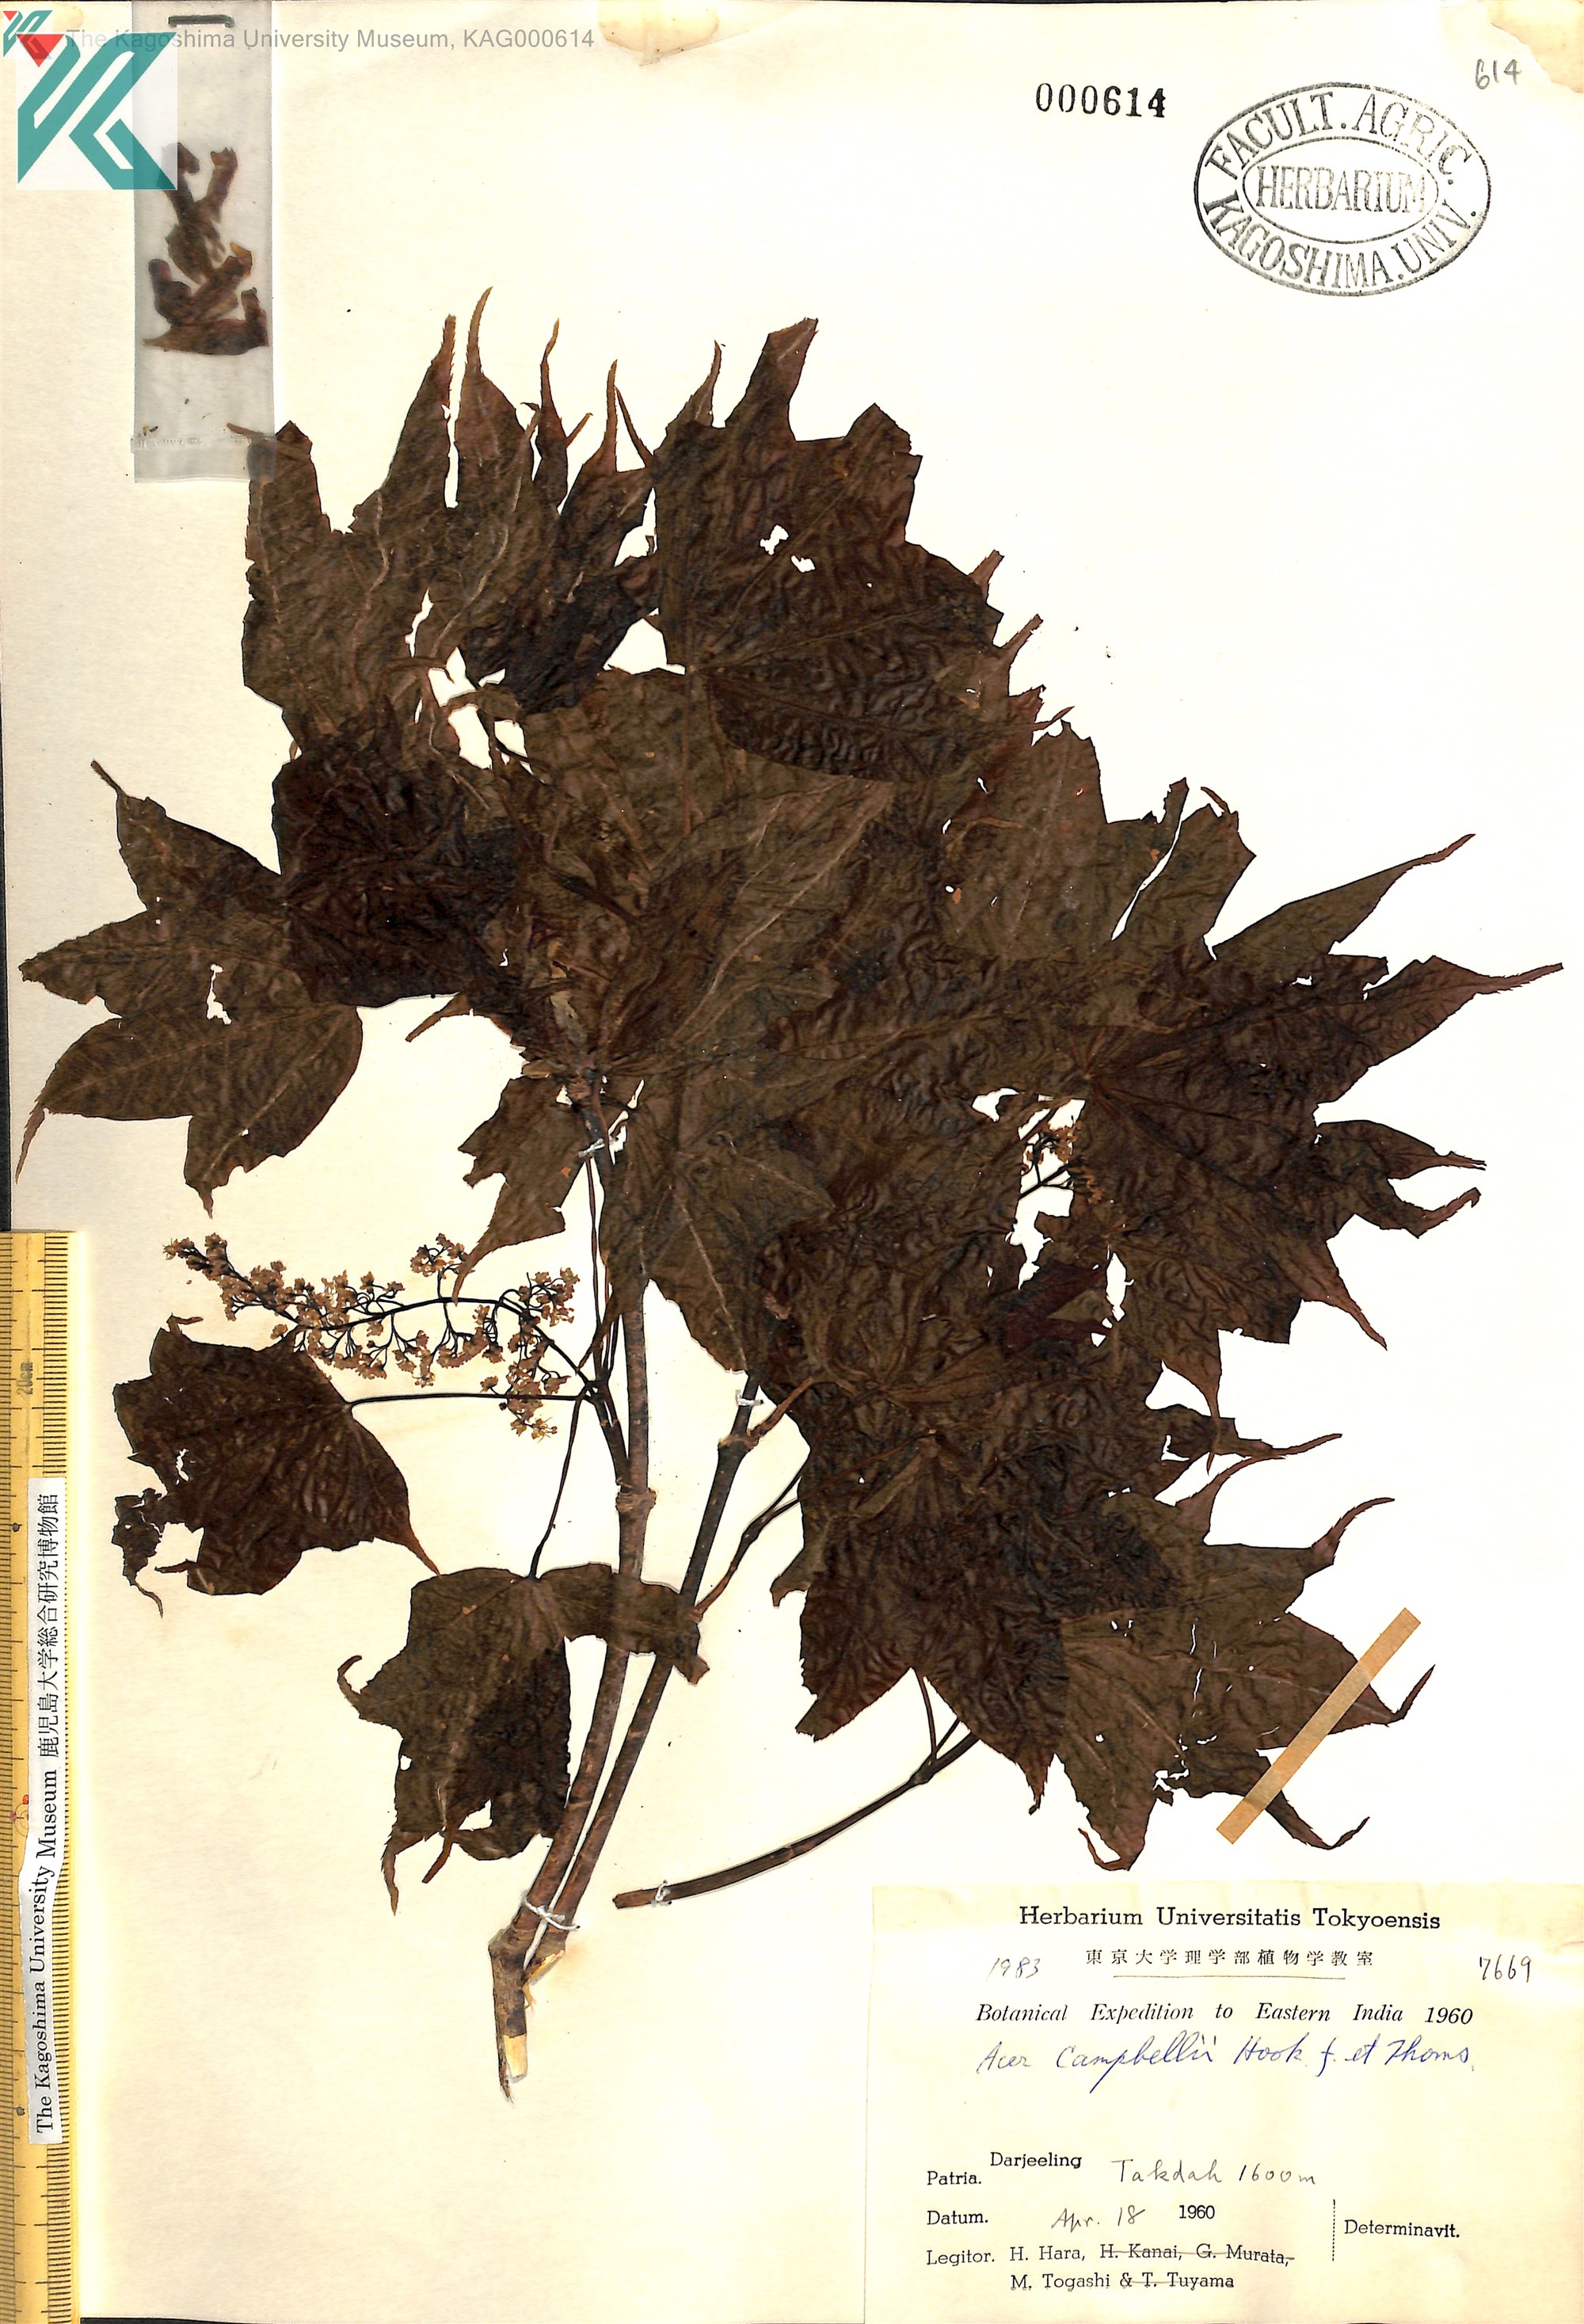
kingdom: Plantae
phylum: Tracheophyta
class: Magnoliopsida
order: Sapindales
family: Sapindaceae
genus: Acer
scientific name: Acer campbellii
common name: Campbell's maple
